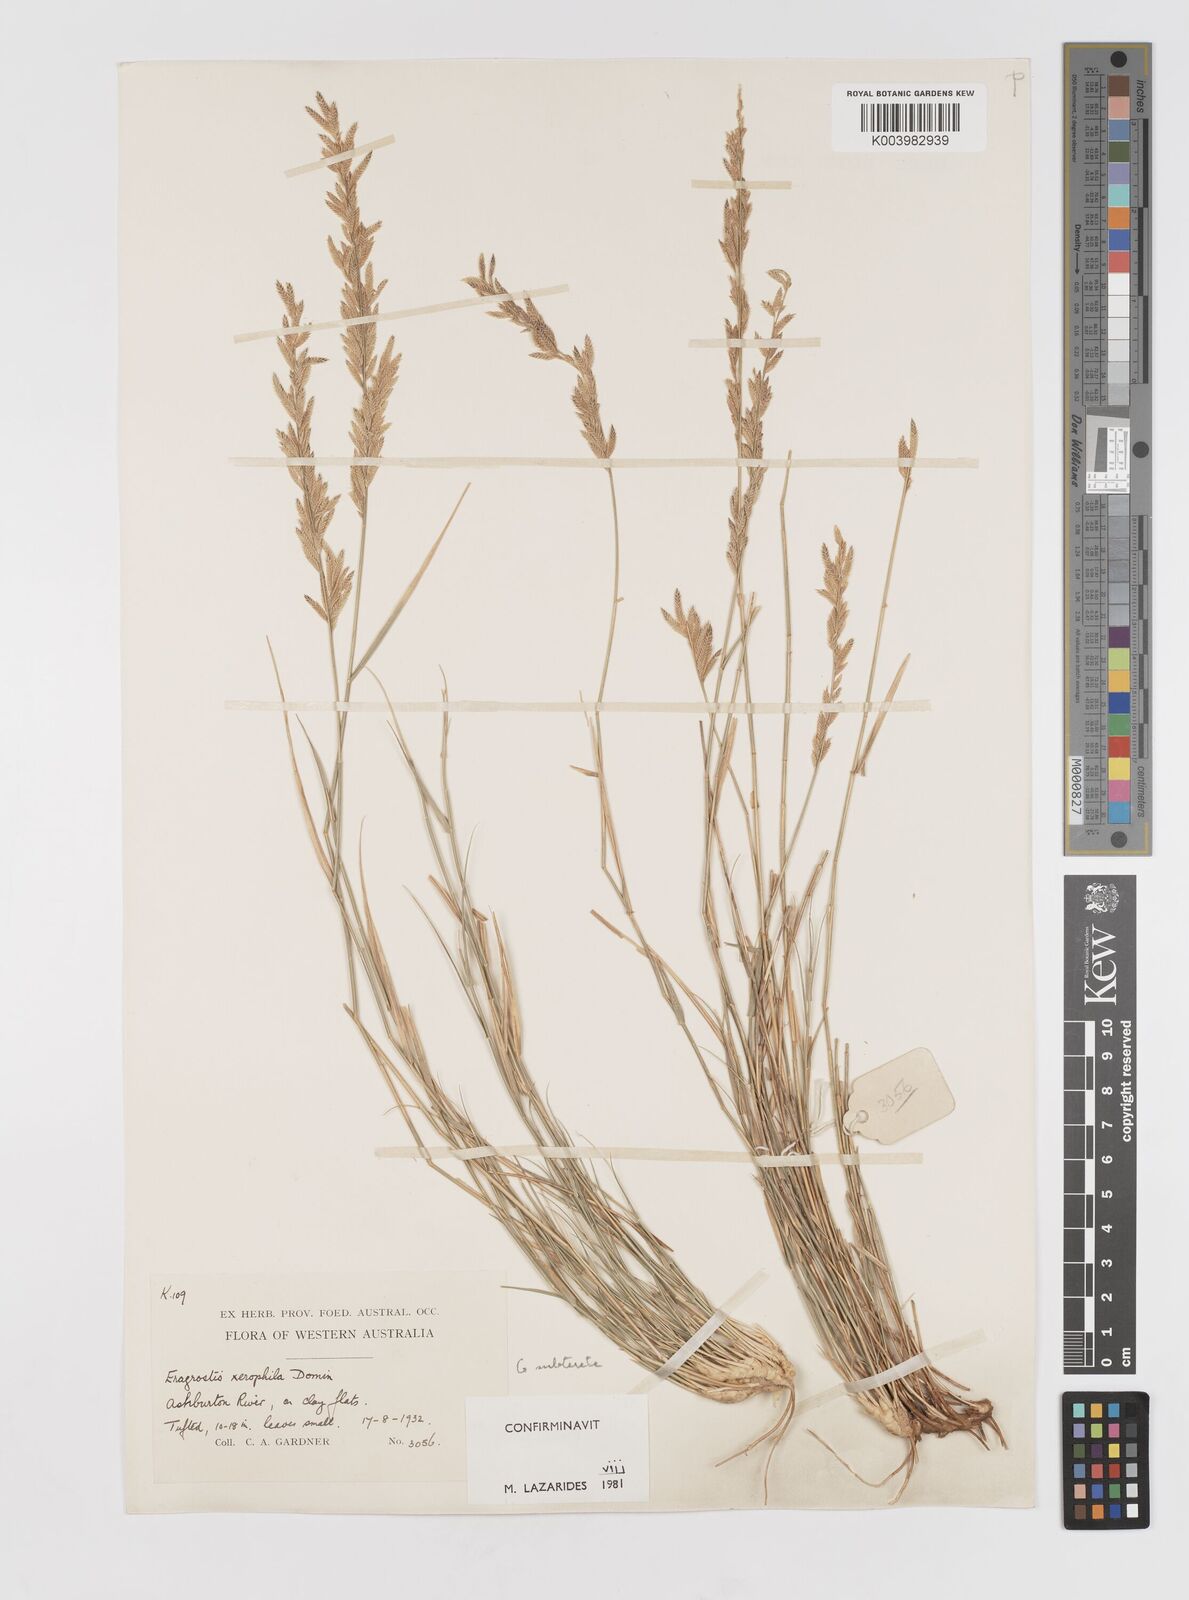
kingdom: Plantae
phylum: Tracheophyta
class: Liliopsida
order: Poales
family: Poaceae
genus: Eragrostis
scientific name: Eragrostis xerophila
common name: Wire wandarrie grass
